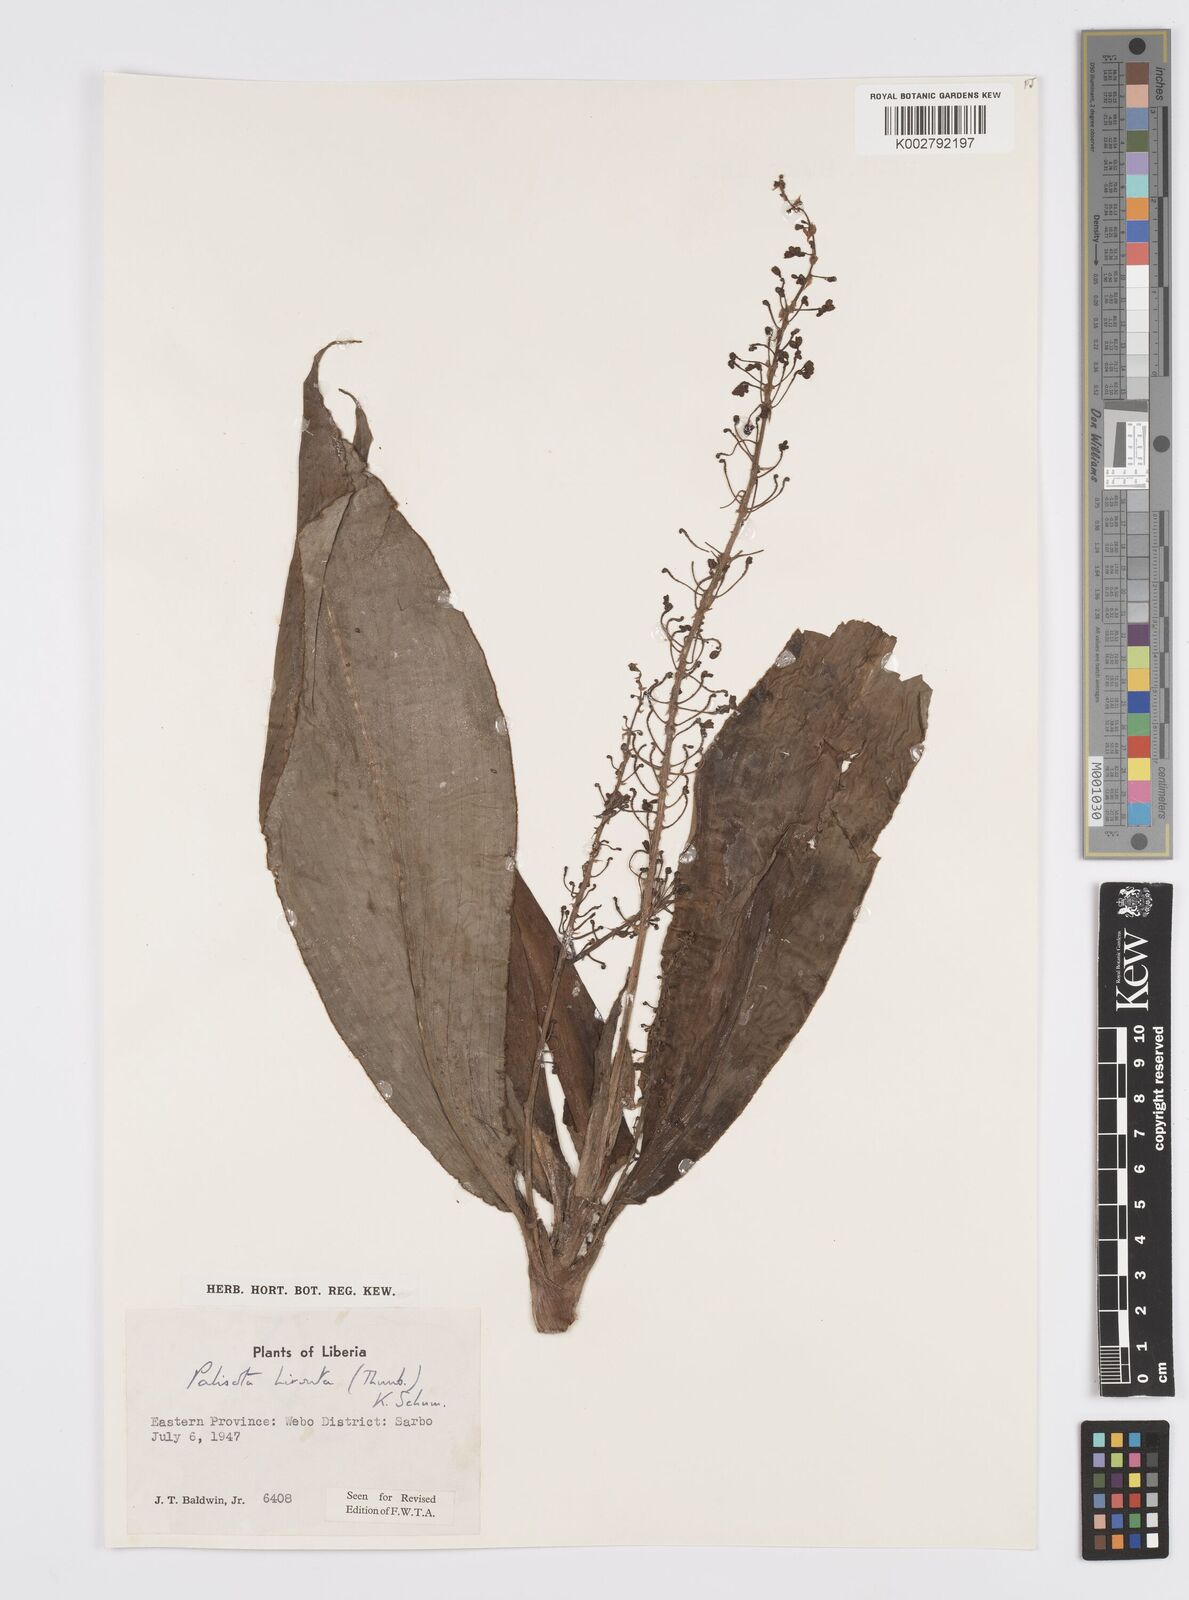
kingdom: Plantae
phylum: Tracheophyta
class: Liliopsida
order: Commelinales
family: Commelinaceae
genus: Palisota
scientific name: Palisota hirsuta
